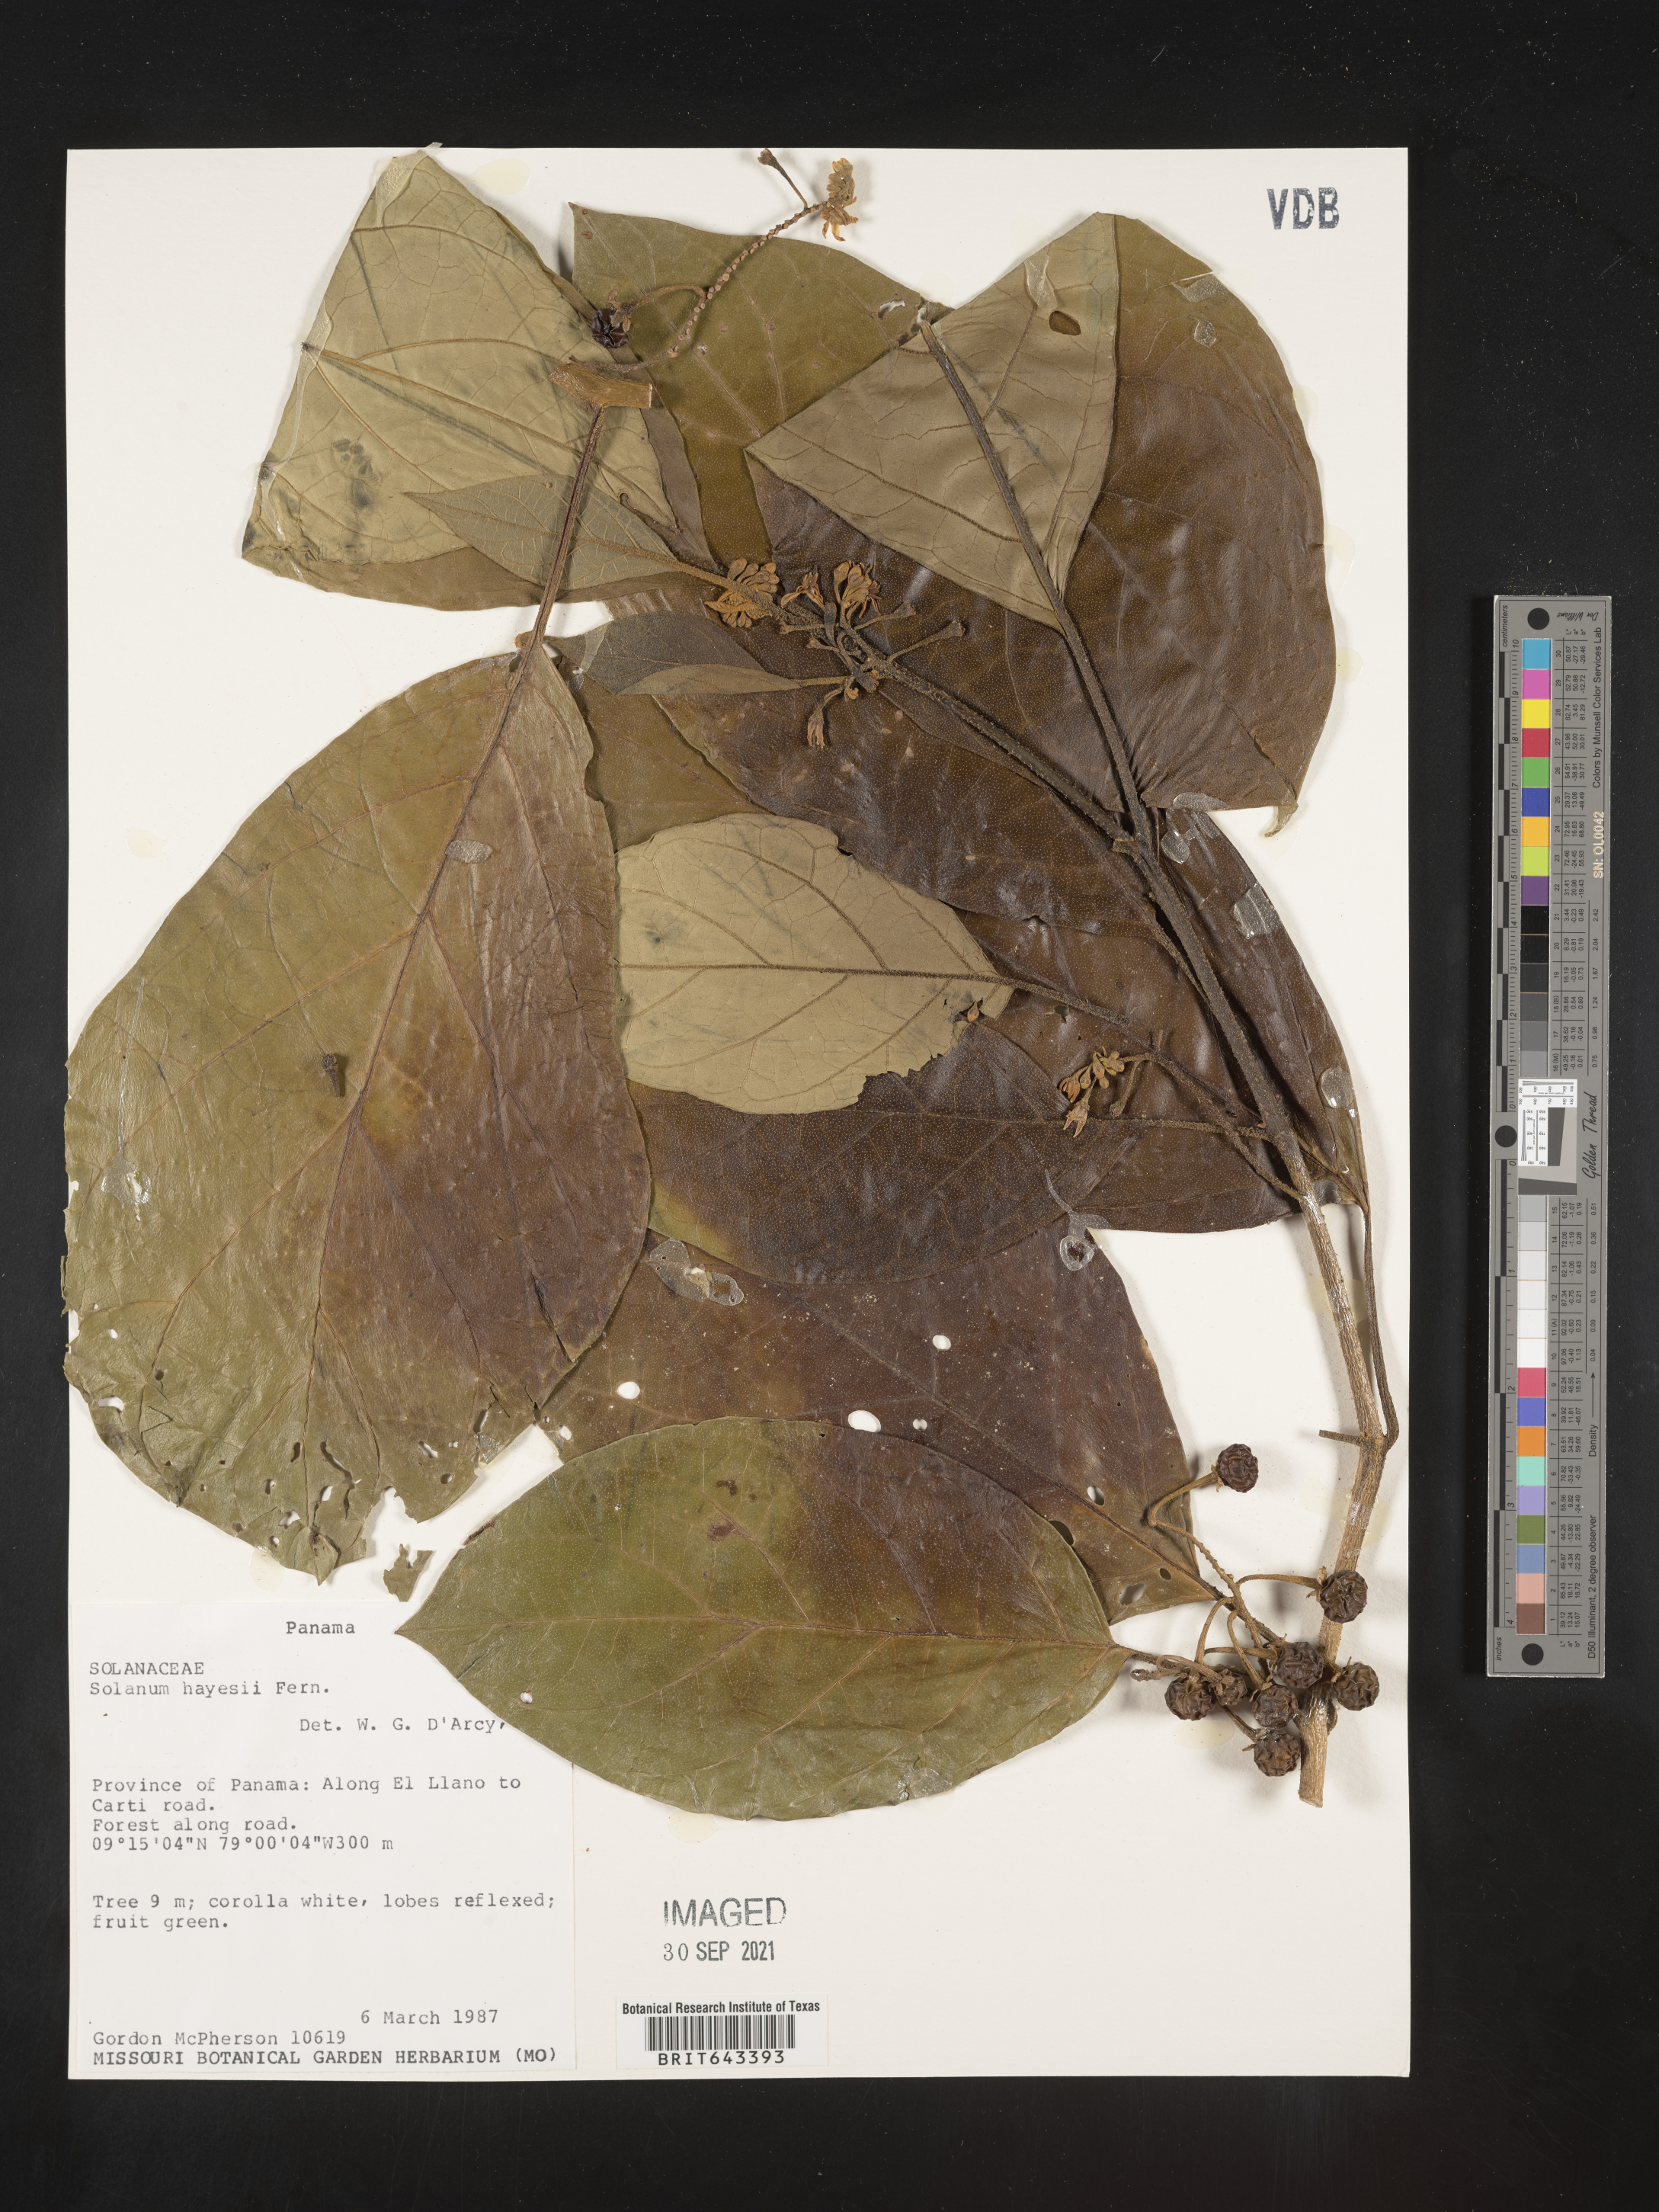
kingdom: Plantae
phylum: Tracheophyta
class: Magnoliopsida
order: Solanales
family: Solanaceae
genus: Solanum
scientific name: Solanum
